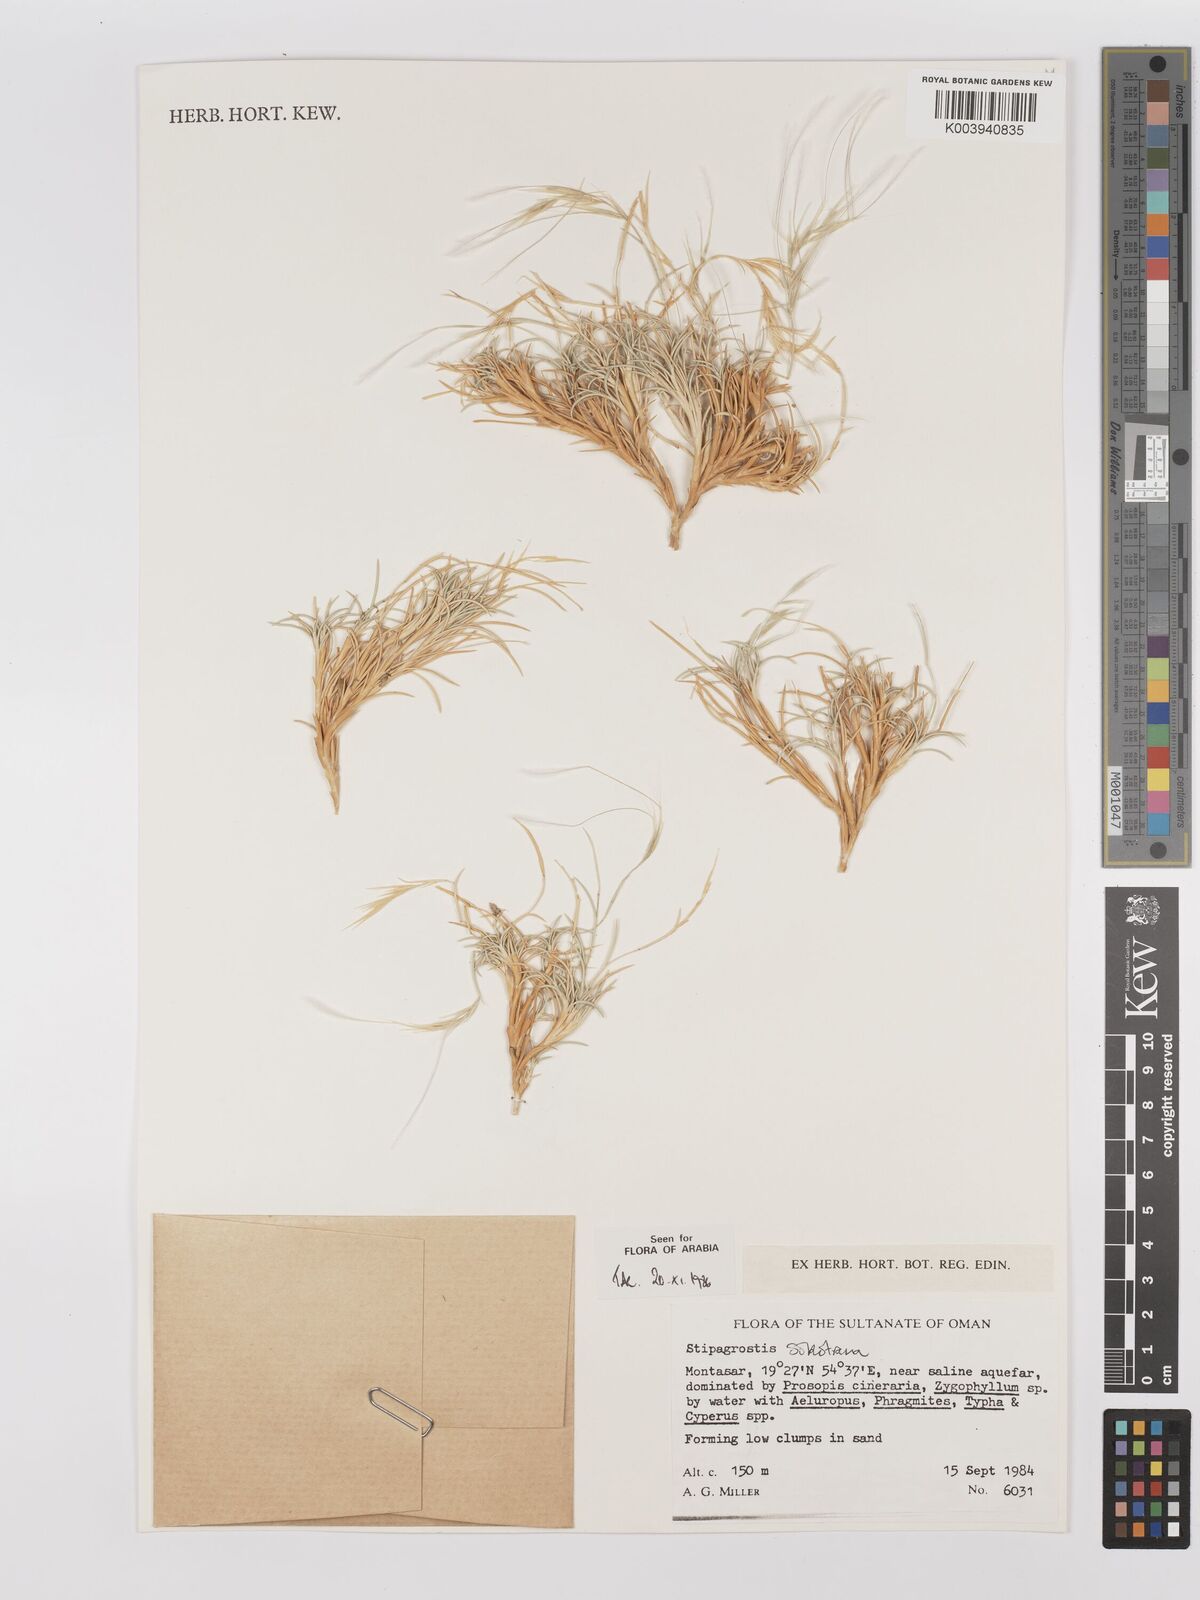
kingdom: Plantae
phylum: Tracheophyta
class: Liliopsida
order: Poales
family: Poaceae
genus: Stipagrostis
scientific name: Stipagrostis sokotrana
